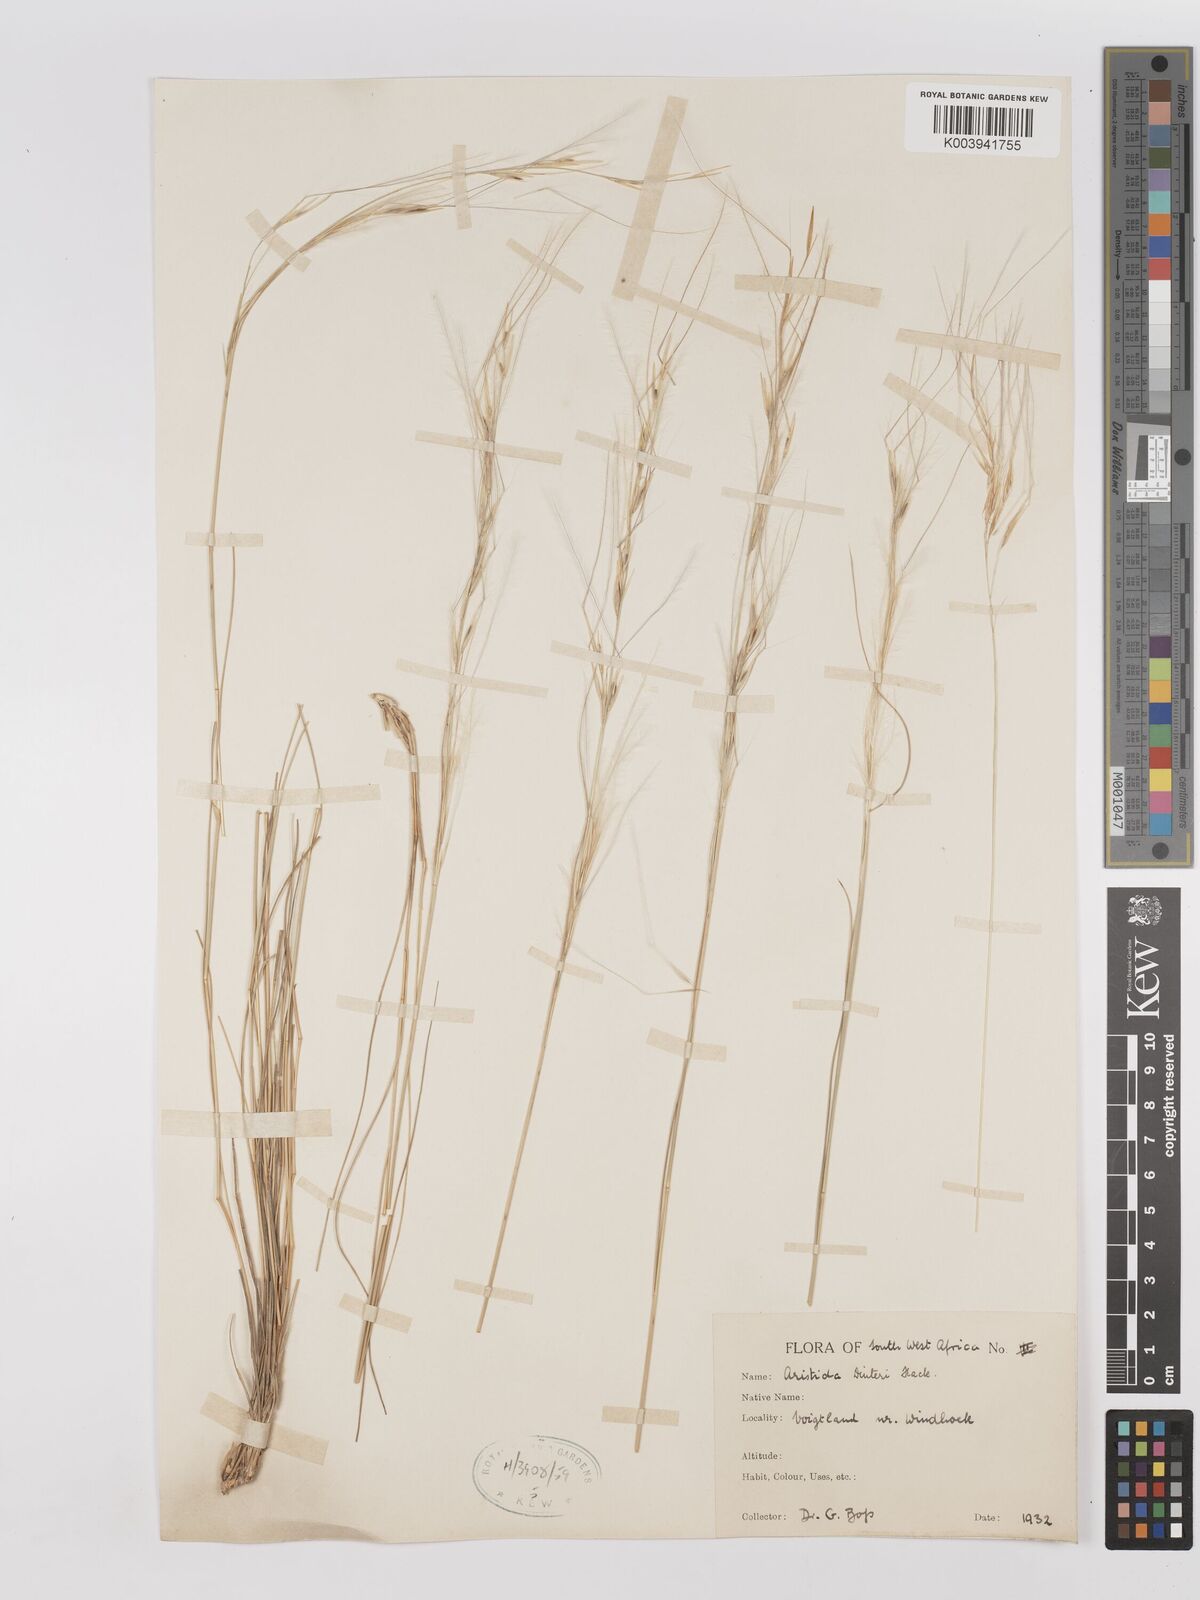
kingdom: Plantae
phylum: Tracheophyta
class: Liliopsida
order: Poales
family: Poaceae
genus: Stipagrostis
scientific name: Stipagrostis dinteri
